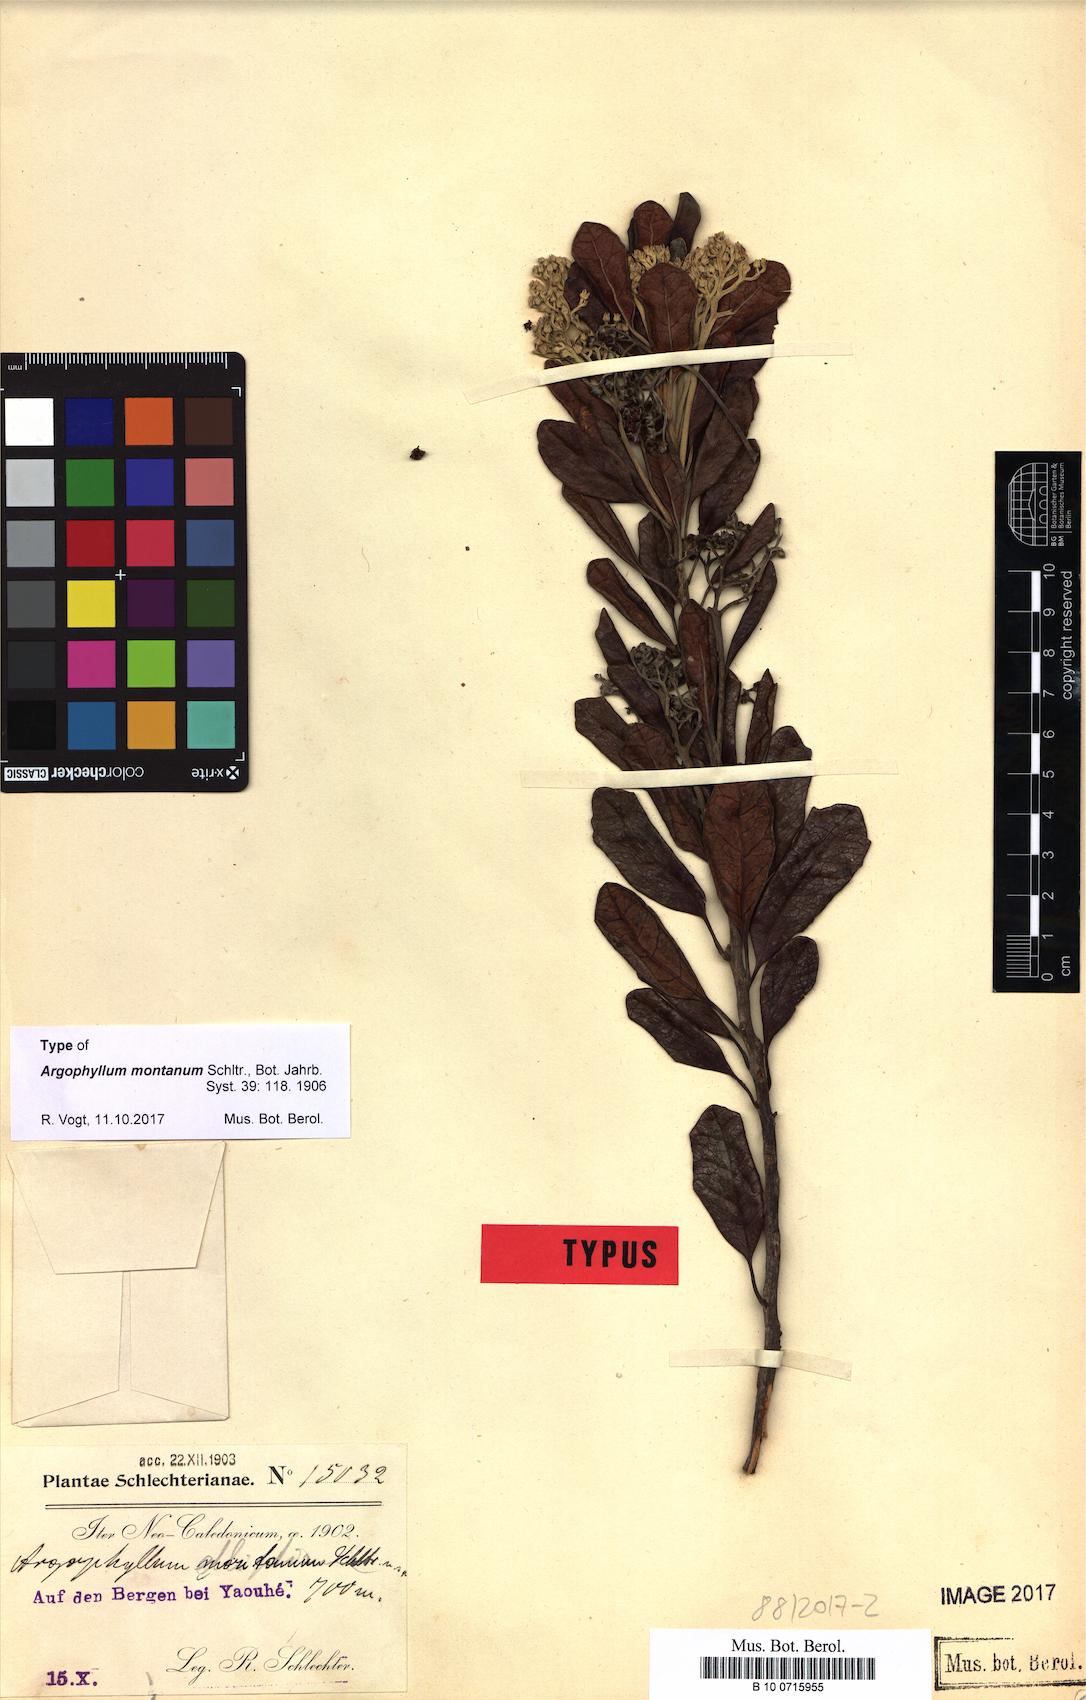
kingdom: Plantae
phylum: Tracheophyta
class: Magnoliopsida
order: Asterales
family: Argophyllaceae
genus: Argophyllum
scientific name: Argophyllum montanum
